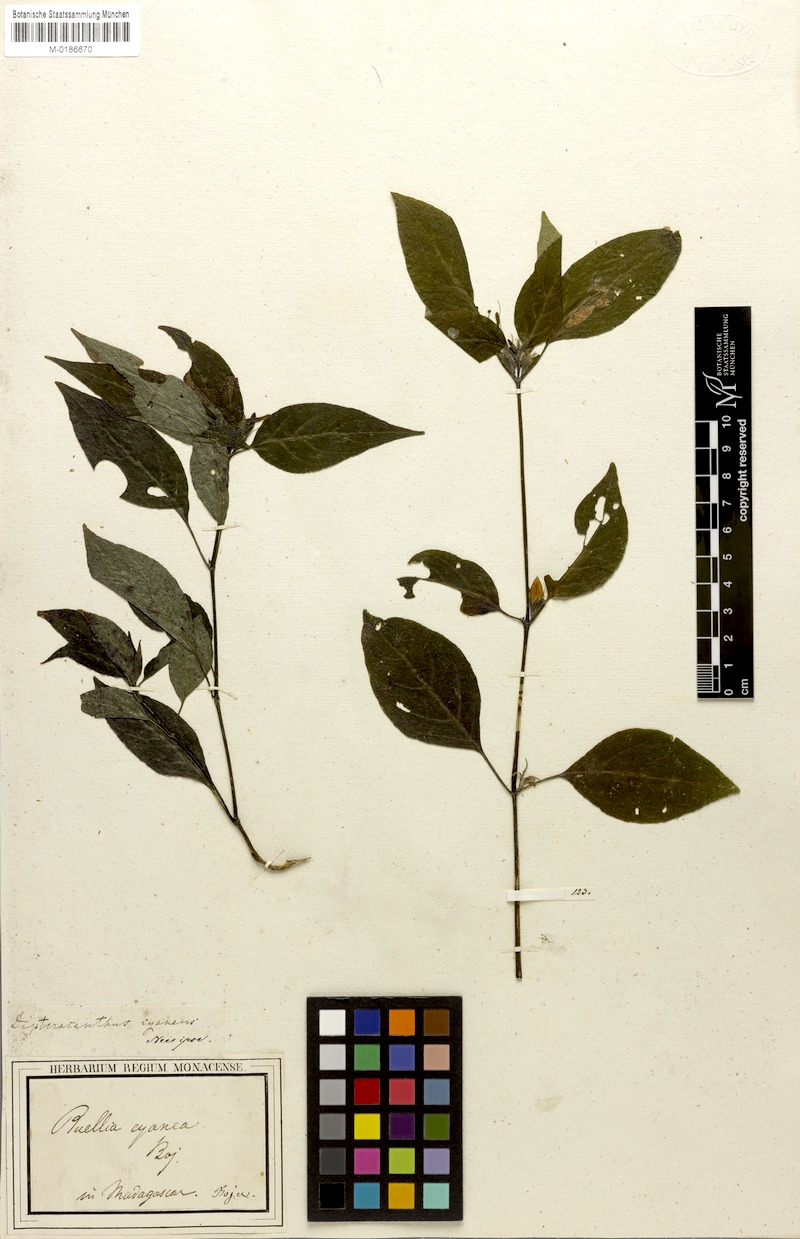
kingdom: Plantae
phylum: Tracheophyta
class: Magnoliopsida
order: Lamiales
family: Acanthaceae
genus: Ruellia
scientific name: Ruellia cyanea
